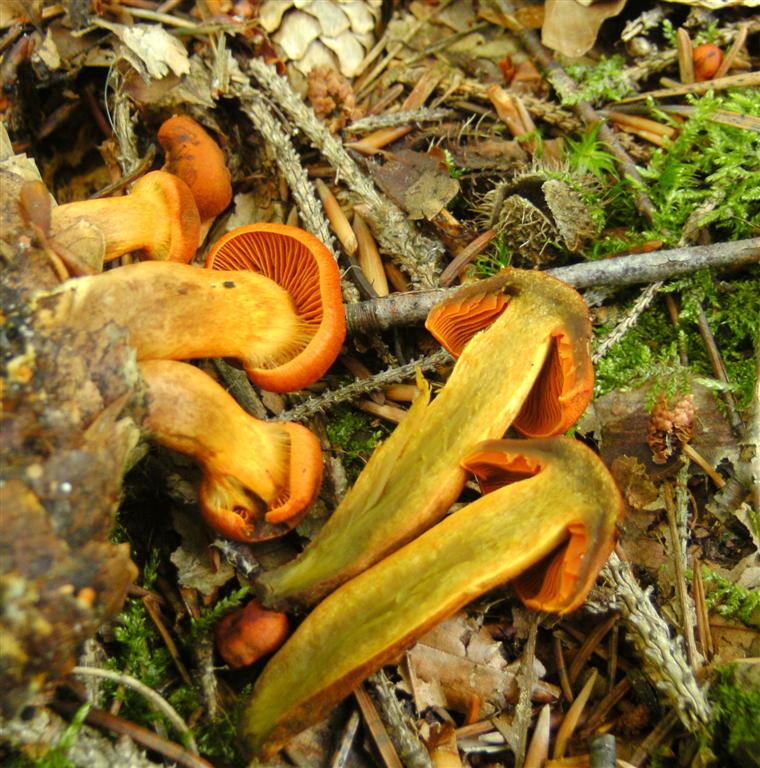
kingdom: Fungi
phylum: Basidiomycota
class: Agaricomycetes
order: Agaricales
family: Cortinariaceae
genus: Cortinarius
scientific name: Cortinarius malicorius
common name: grønkødet slørhat
